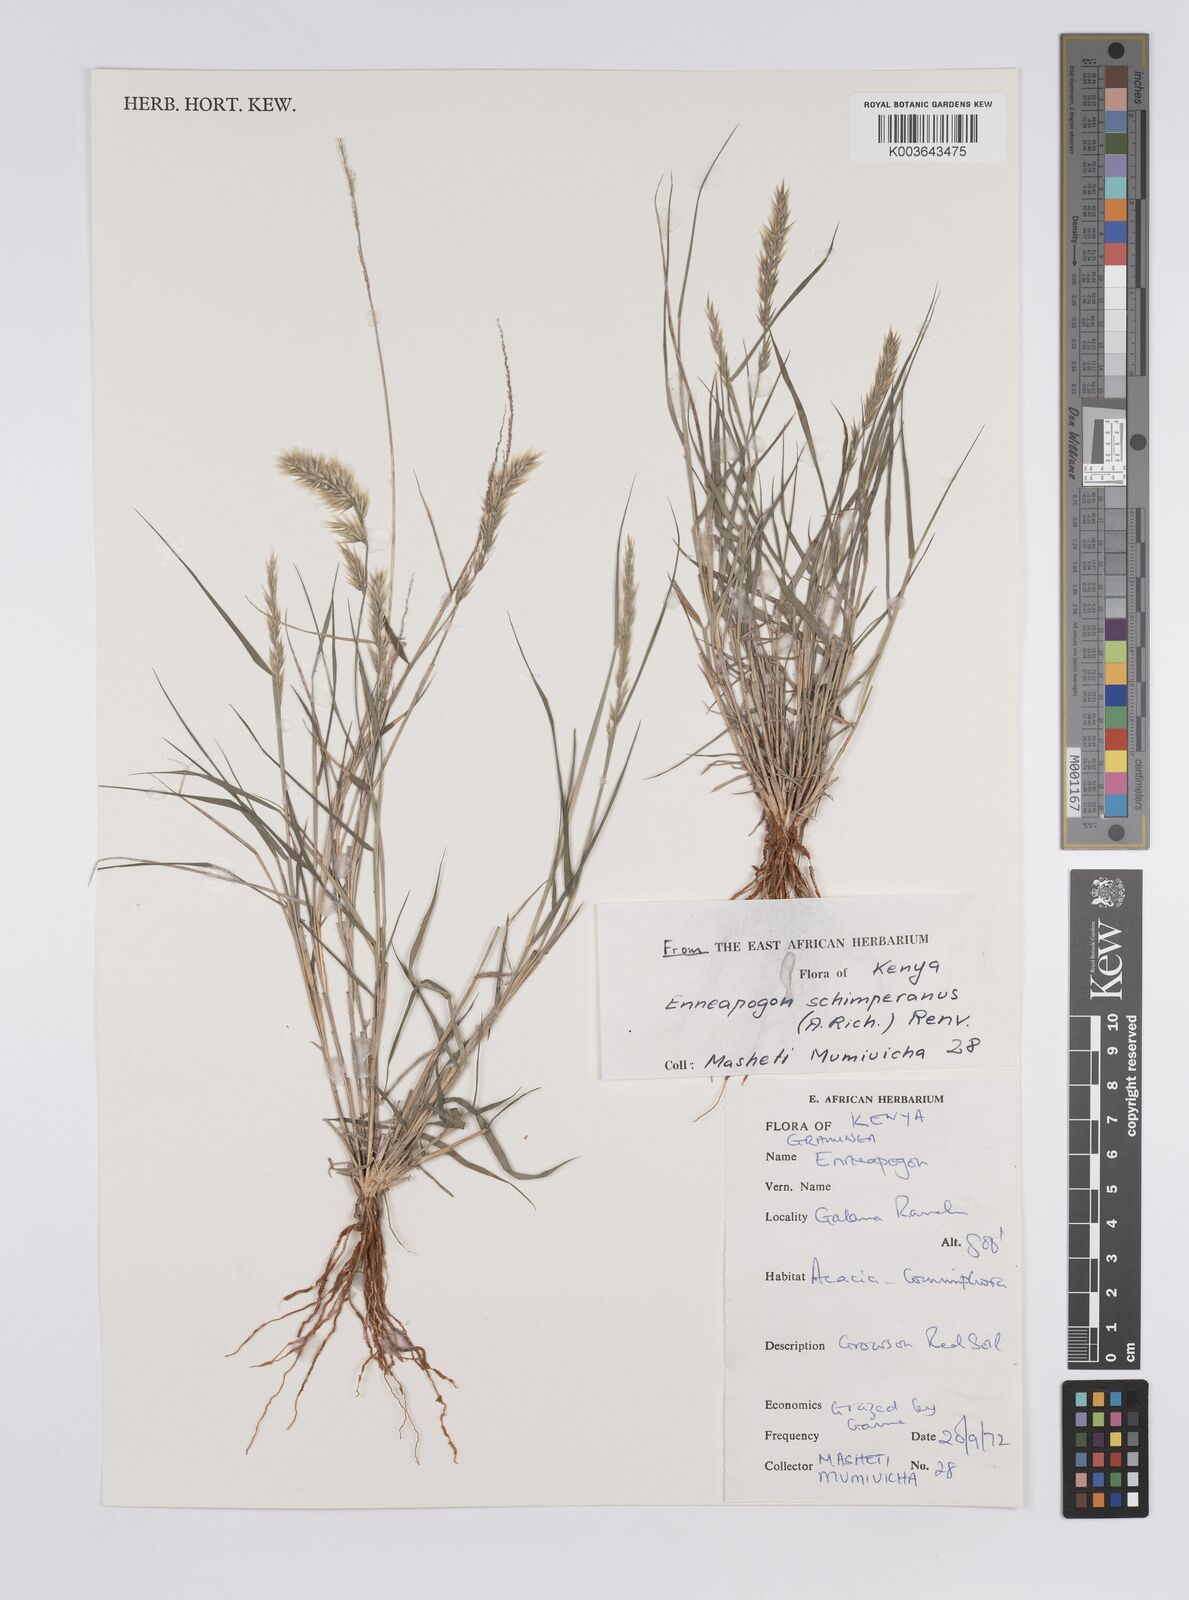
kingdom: Plantae
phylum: Tracheophyta
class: Liliopsida
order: Poales
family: Poaceae
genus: Enneapogon
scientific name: Enneapogon persicus
